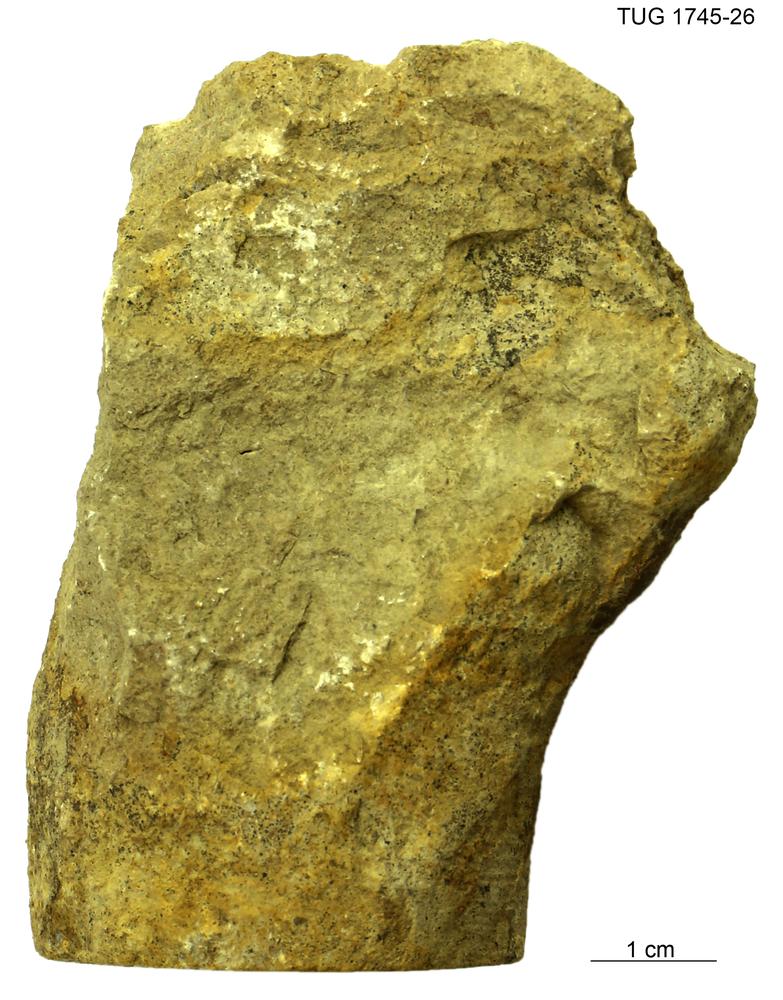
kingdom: Animalia
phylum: Mollusca
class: Cephalopoda
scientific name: Cephalopoda
